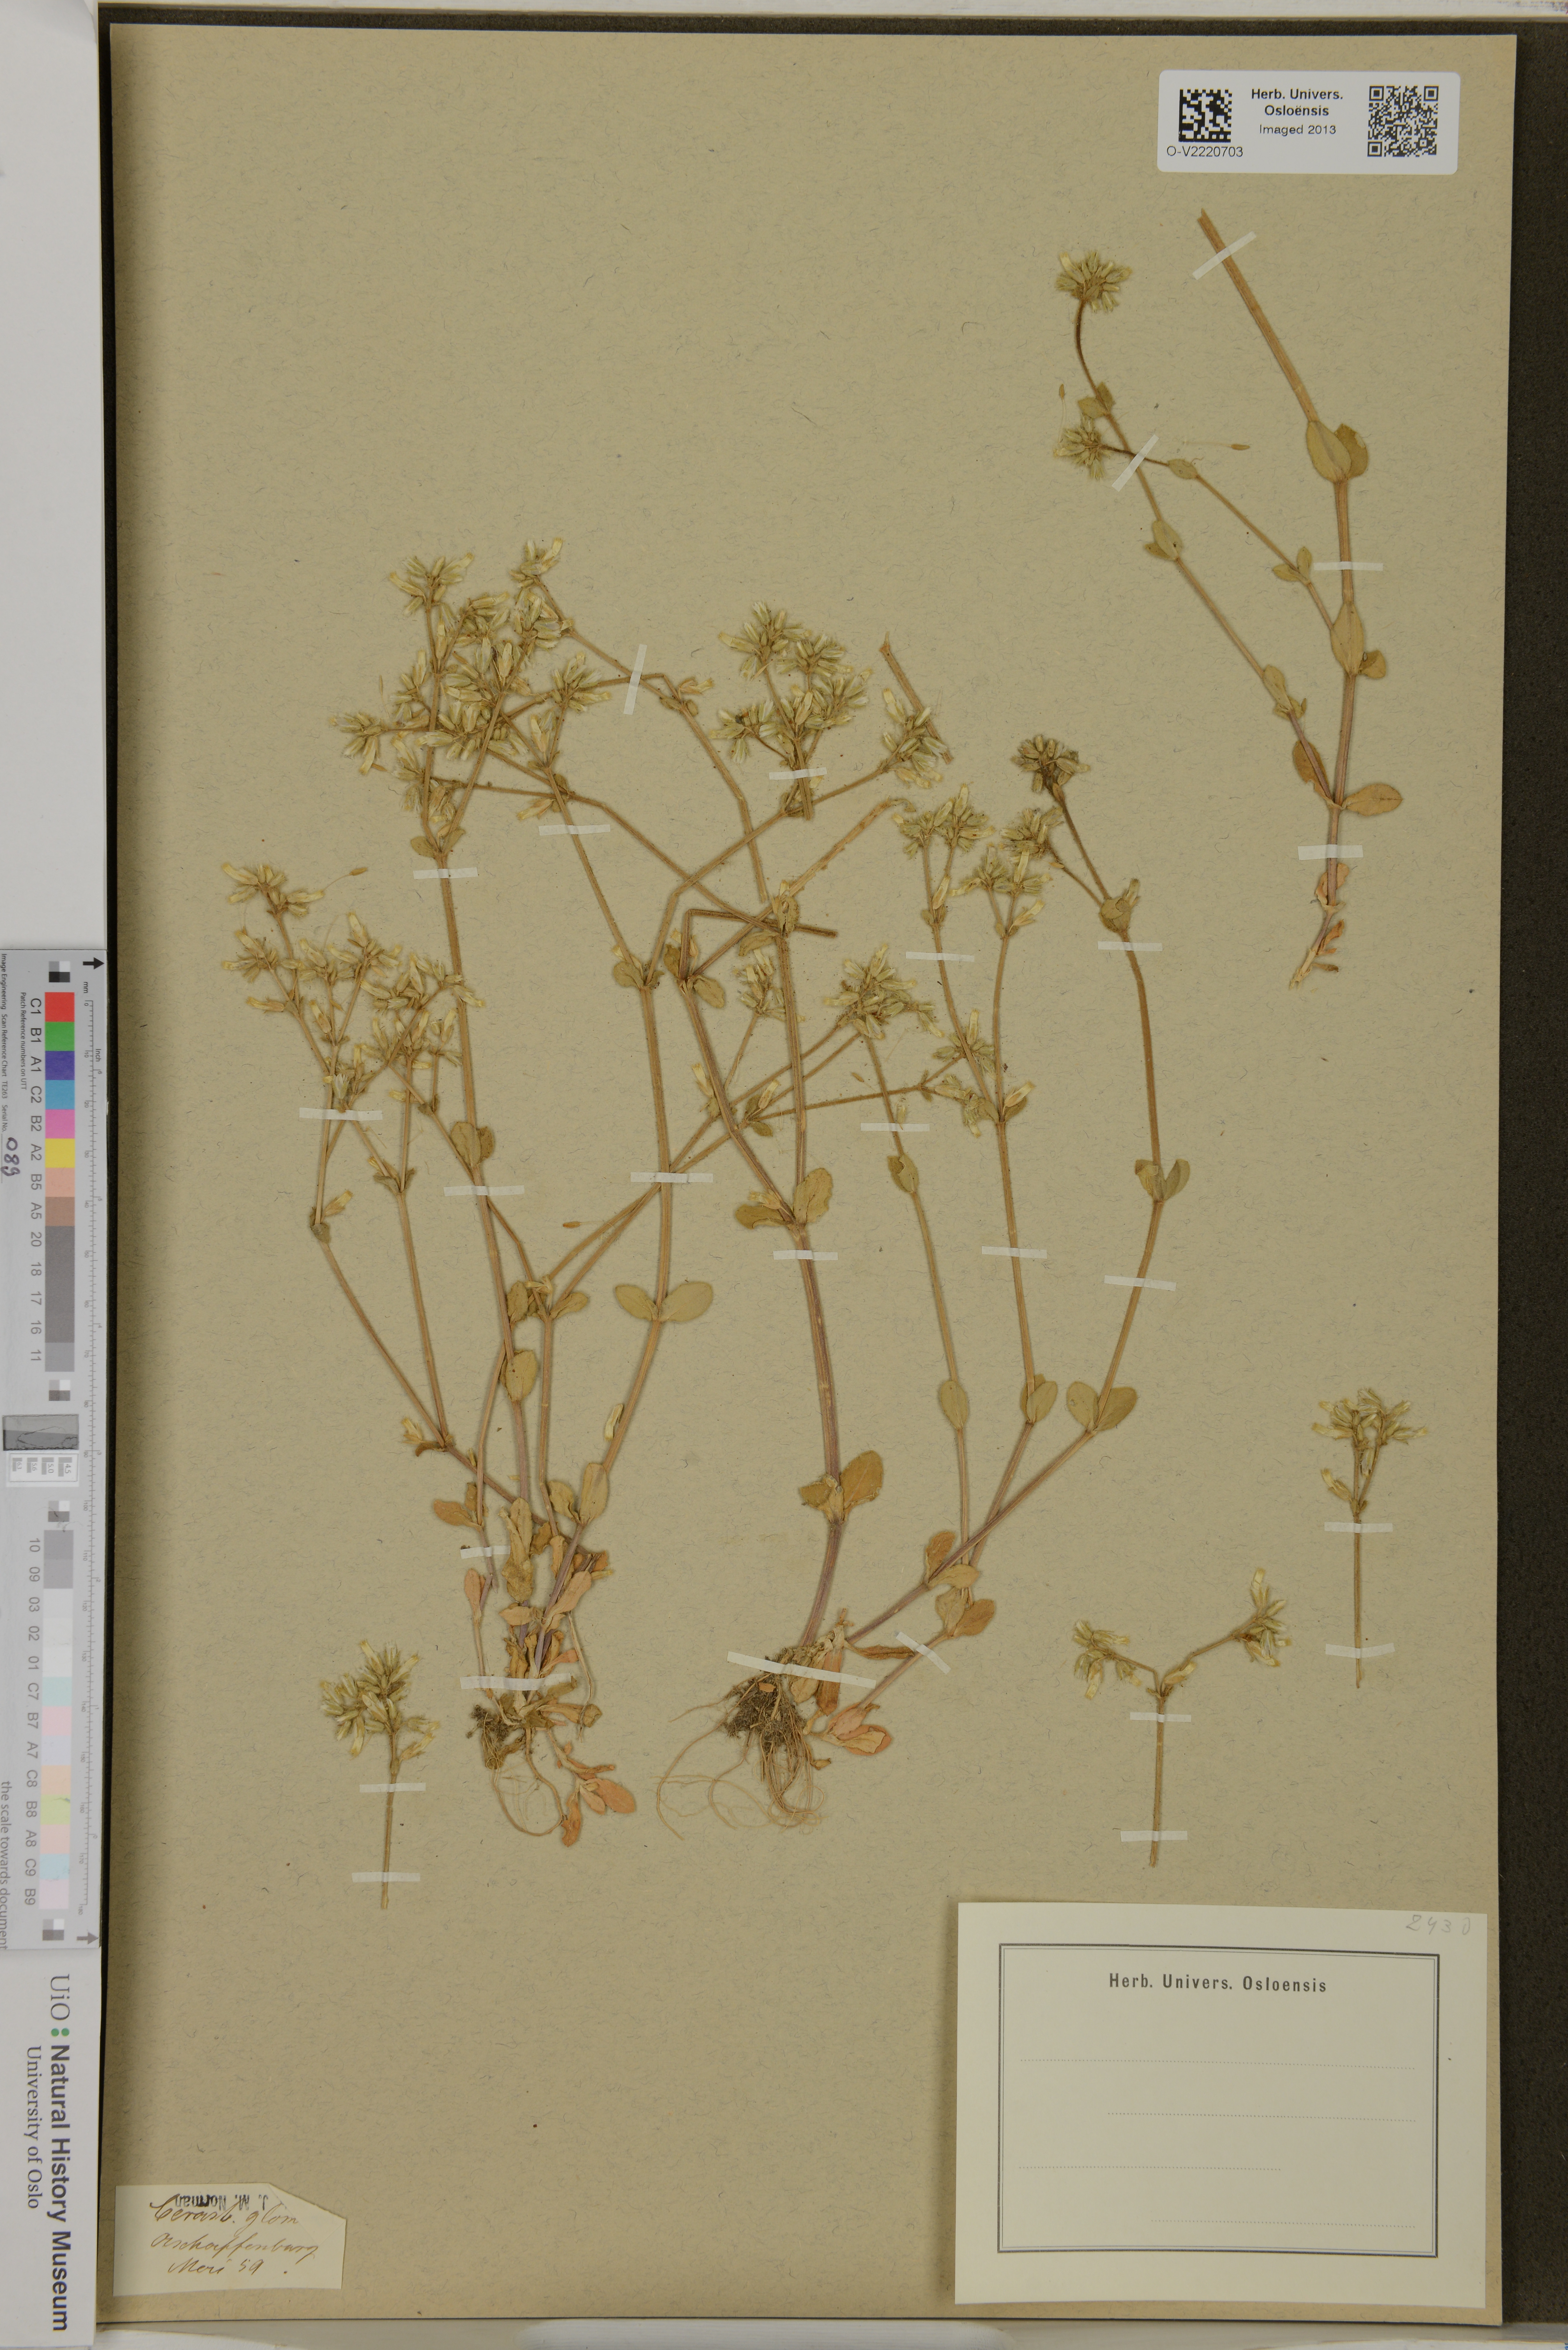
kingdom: Plantae
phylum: Tracheophyta
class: Magnoliopsida
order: Caryophyllales
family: Caryophyllaceae
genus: Cerastium
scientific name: Cerastium
